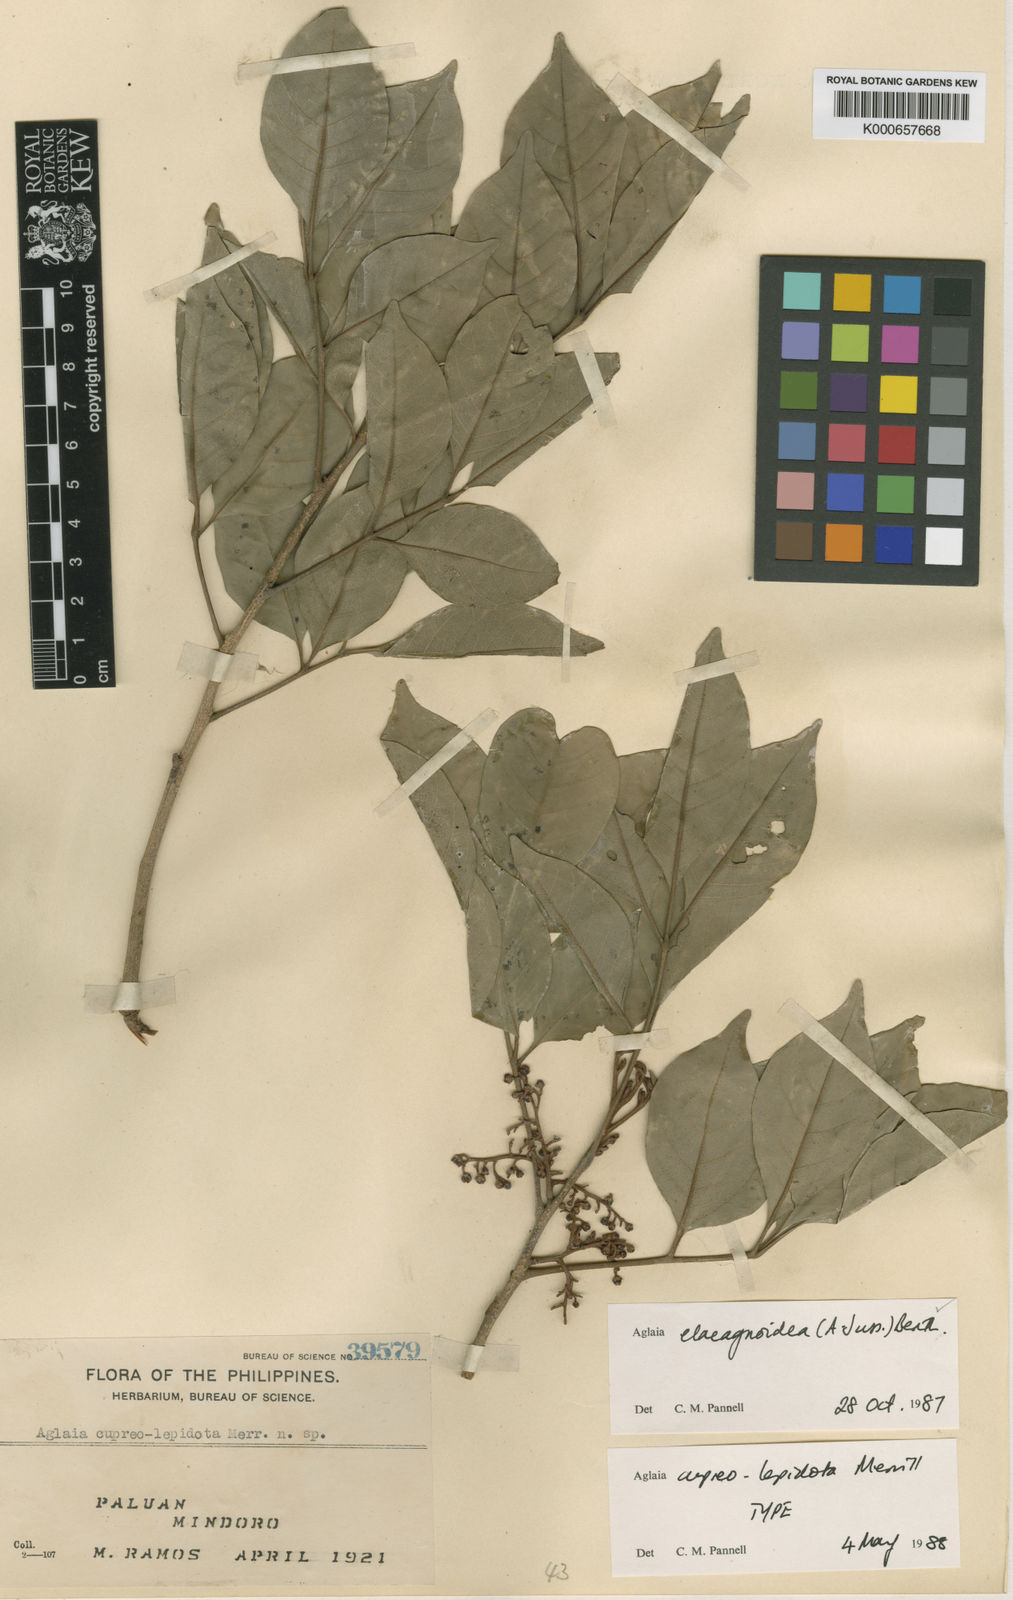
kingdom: Plantae
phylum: Tracheophyta
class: Magnoliopsida
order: Sapindales
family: Meliaceae
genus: Aglaia
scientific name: Aglaia elaeagnoidea
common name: Droopyleaf
